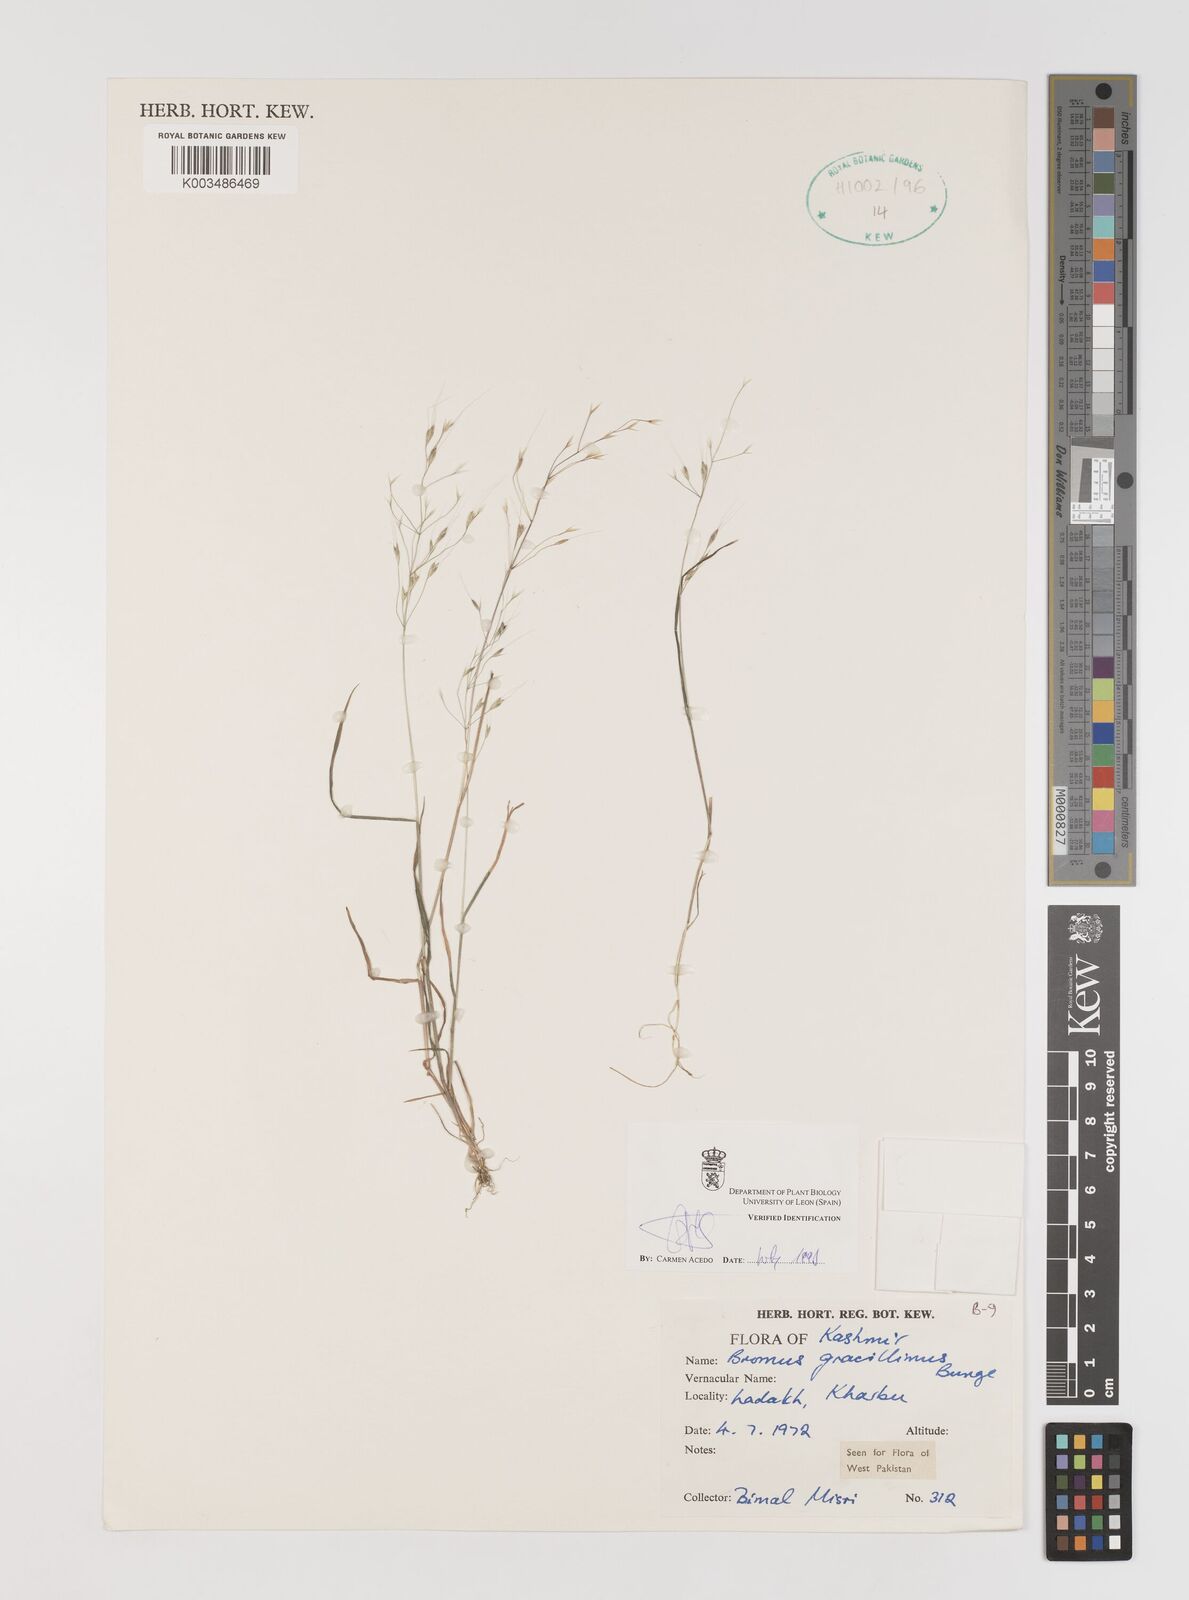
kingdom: Plantae
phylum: Tracheophyta
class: Liliopsida
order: Poales
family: Poaceae
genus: Bromus
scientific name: Bromus gracillimus
